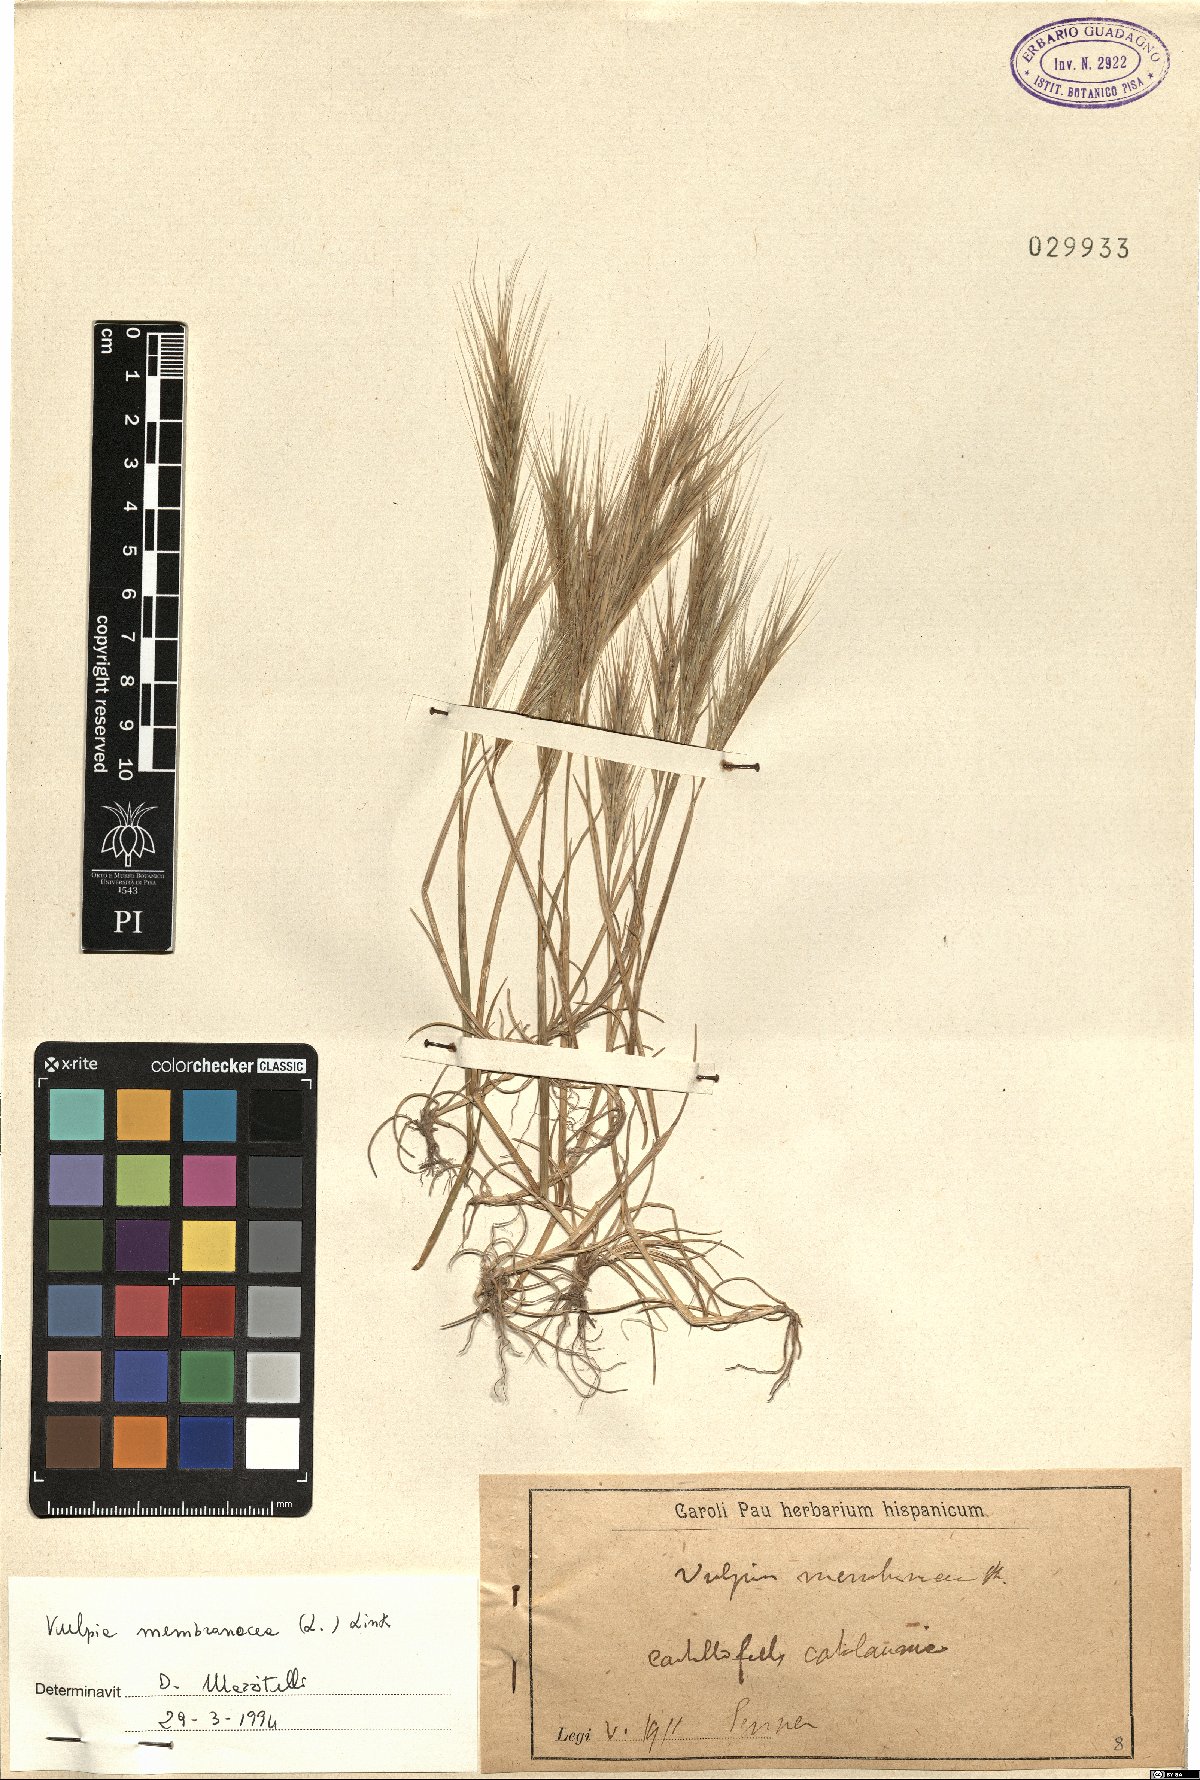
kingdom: Plantae
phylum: Tracheophyta
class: Liliopsida
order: Poales
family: Poaceae
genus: Festuca
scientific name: Festuca membranacea
